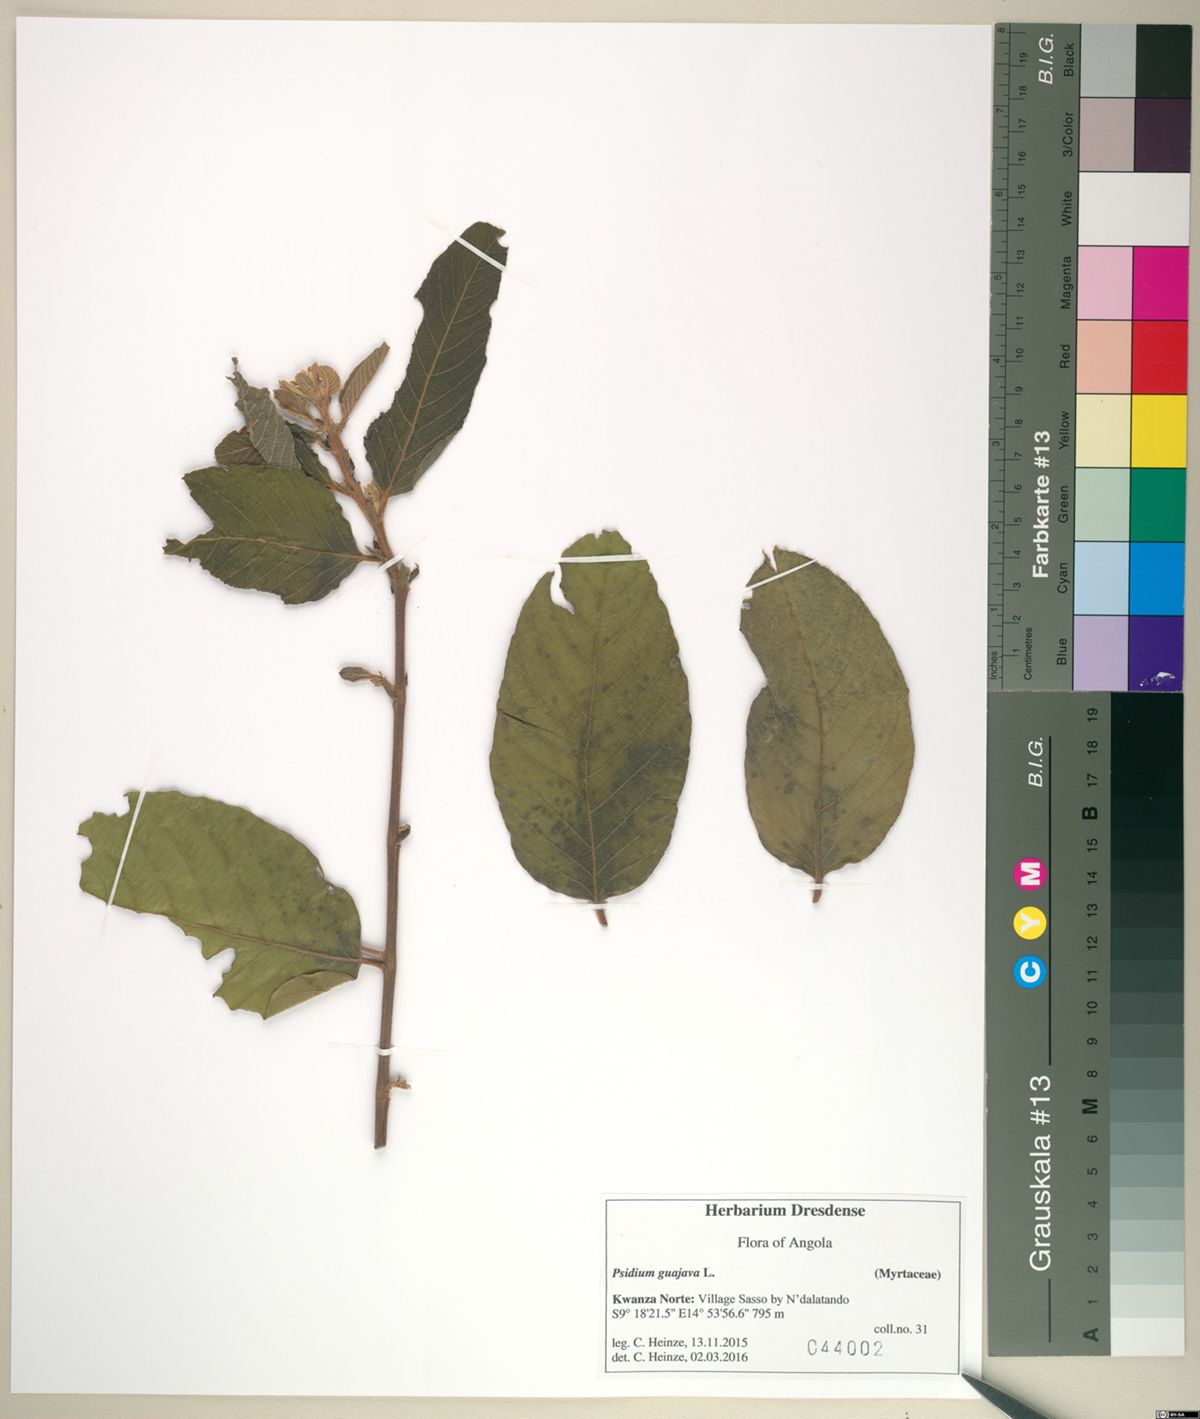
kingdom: Plantae
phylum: Tracheophyta
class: Magnoliopsida
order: Myrtales
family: Myrtaceae
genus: Psidium
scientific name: Psidium guajava
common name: Guava
